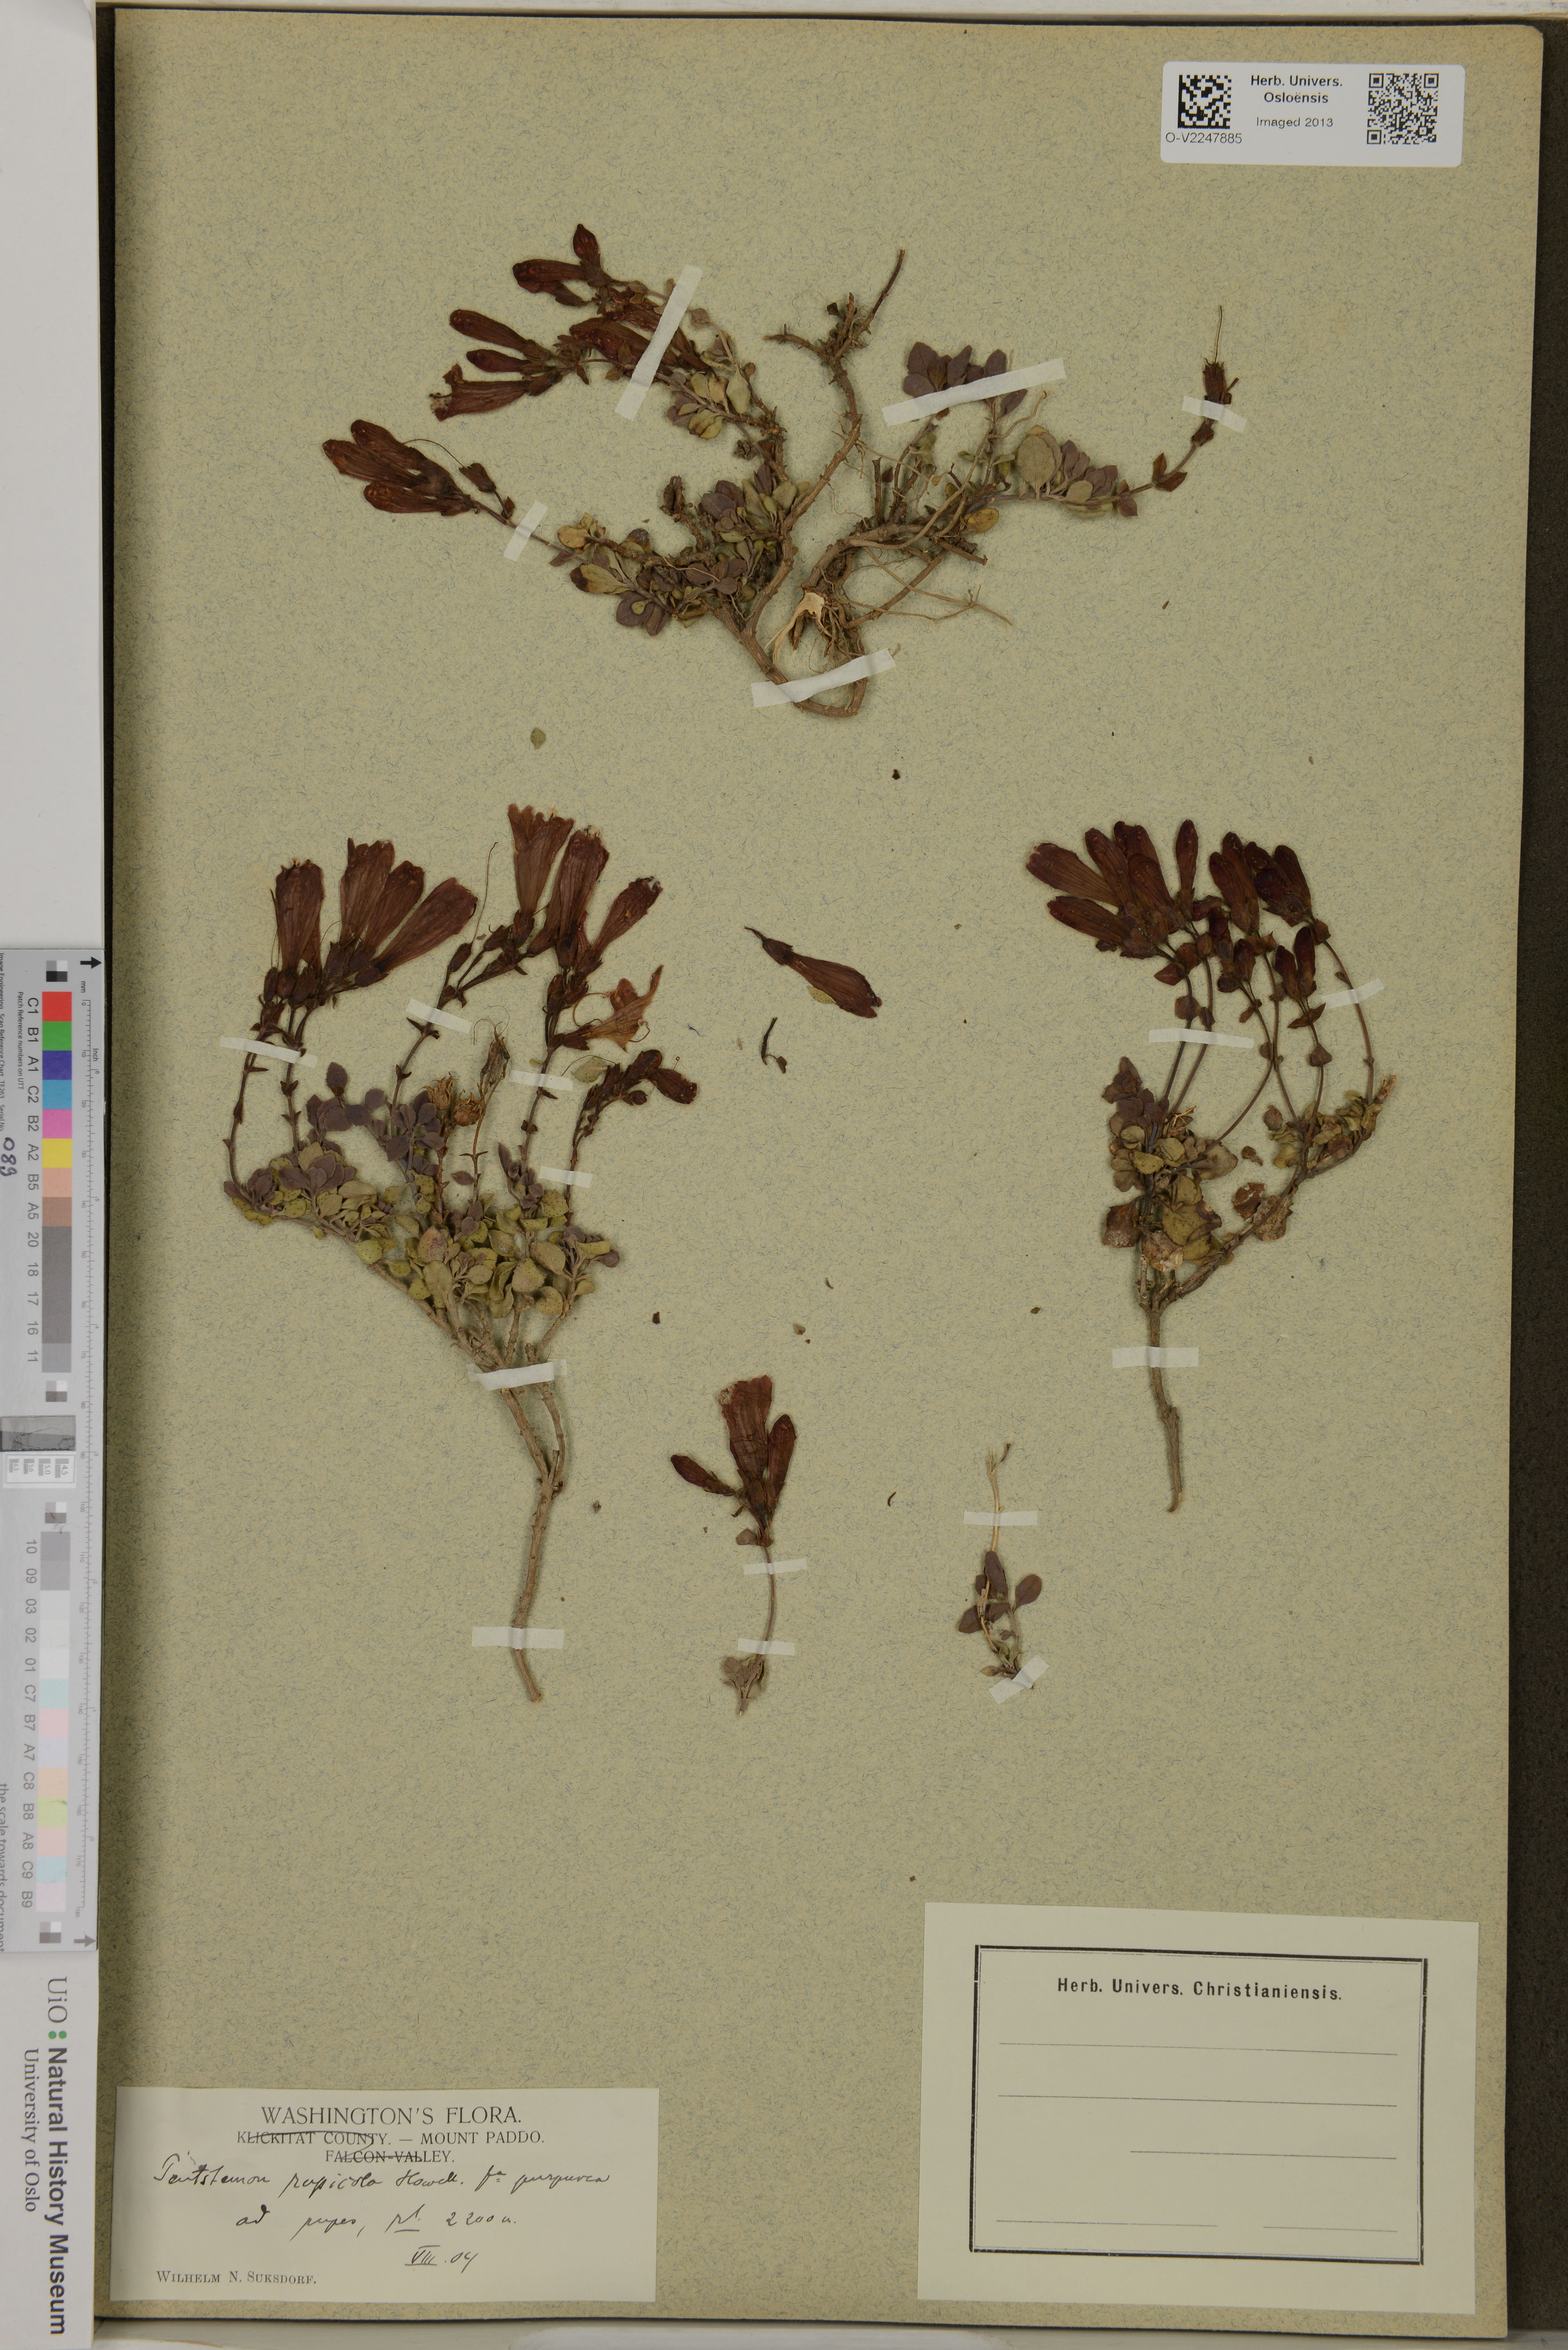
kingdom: Plantae
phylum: Tracheophyta
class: Magnoliopsida
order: Lamiales
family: Plantaginaceae
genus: Penstemon
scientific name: Penstemon rupicola
